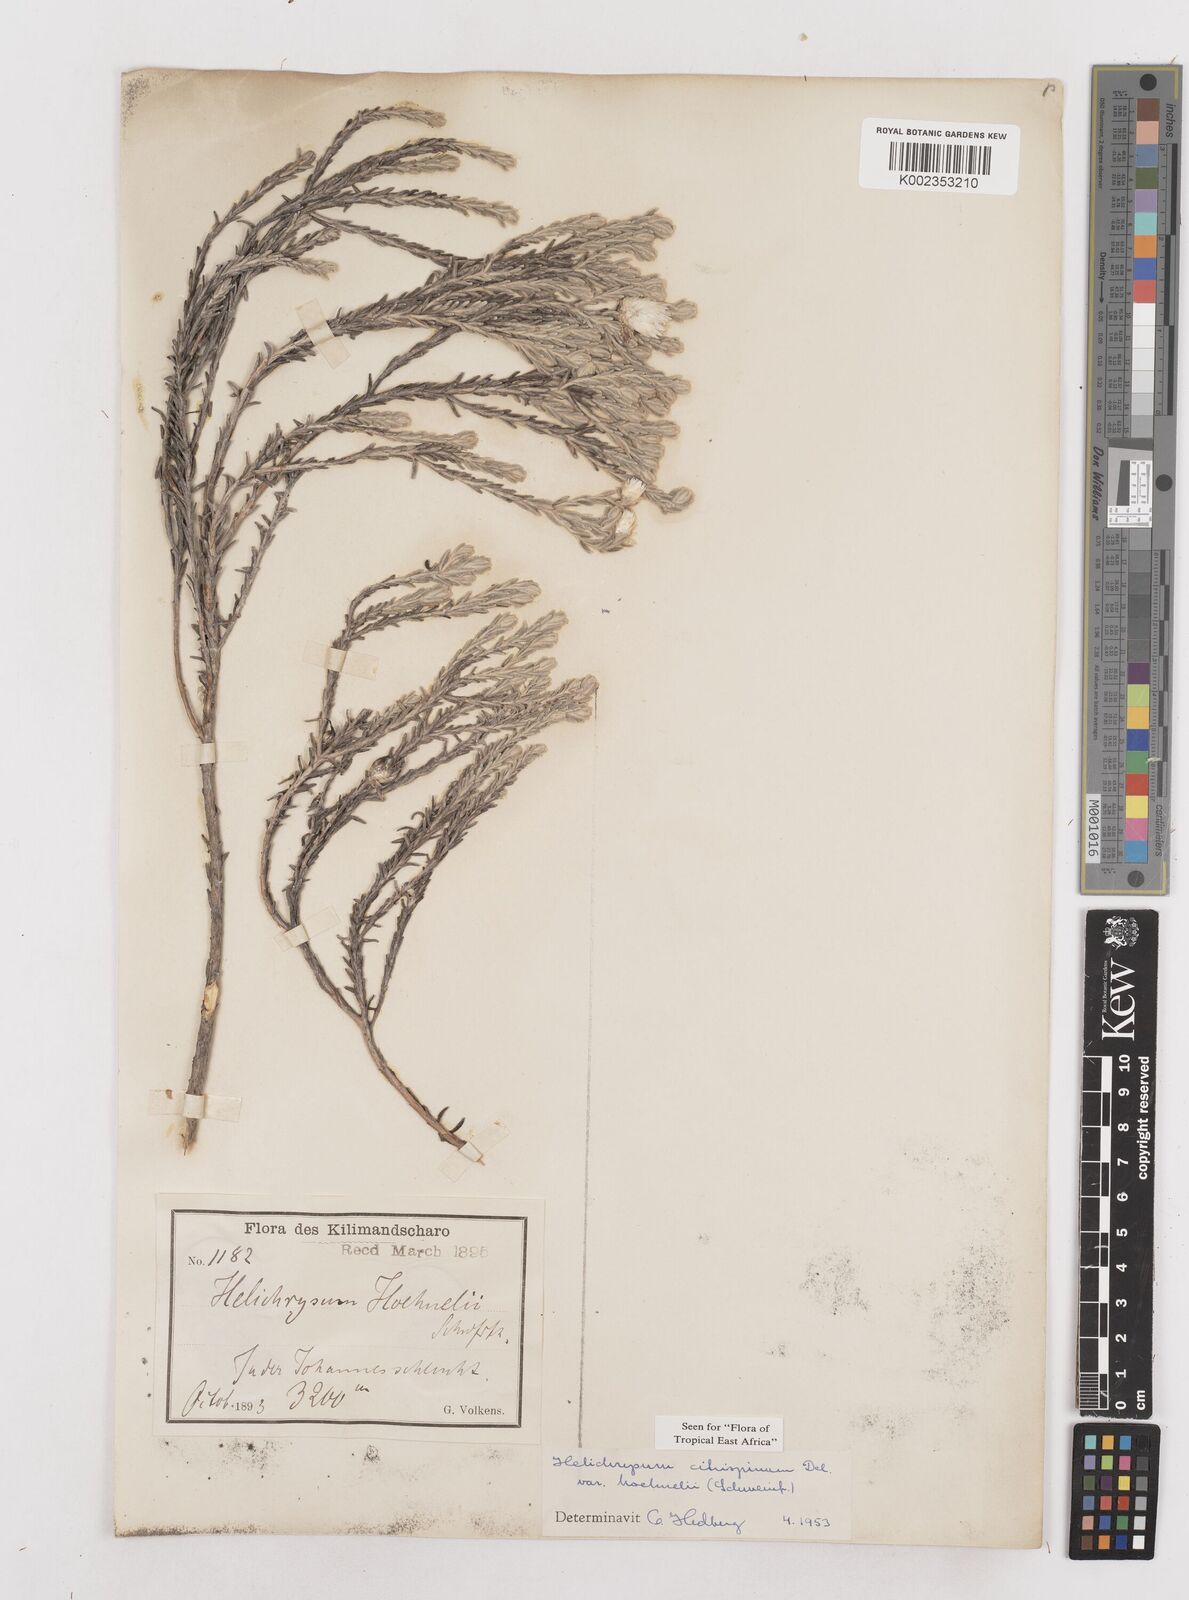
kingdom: Plantae
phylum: Tracheophyta
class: Magnoliopsida
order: Asterales
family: Asteraceae
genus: Helichrysum
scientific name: Helichrysum citrispinum
